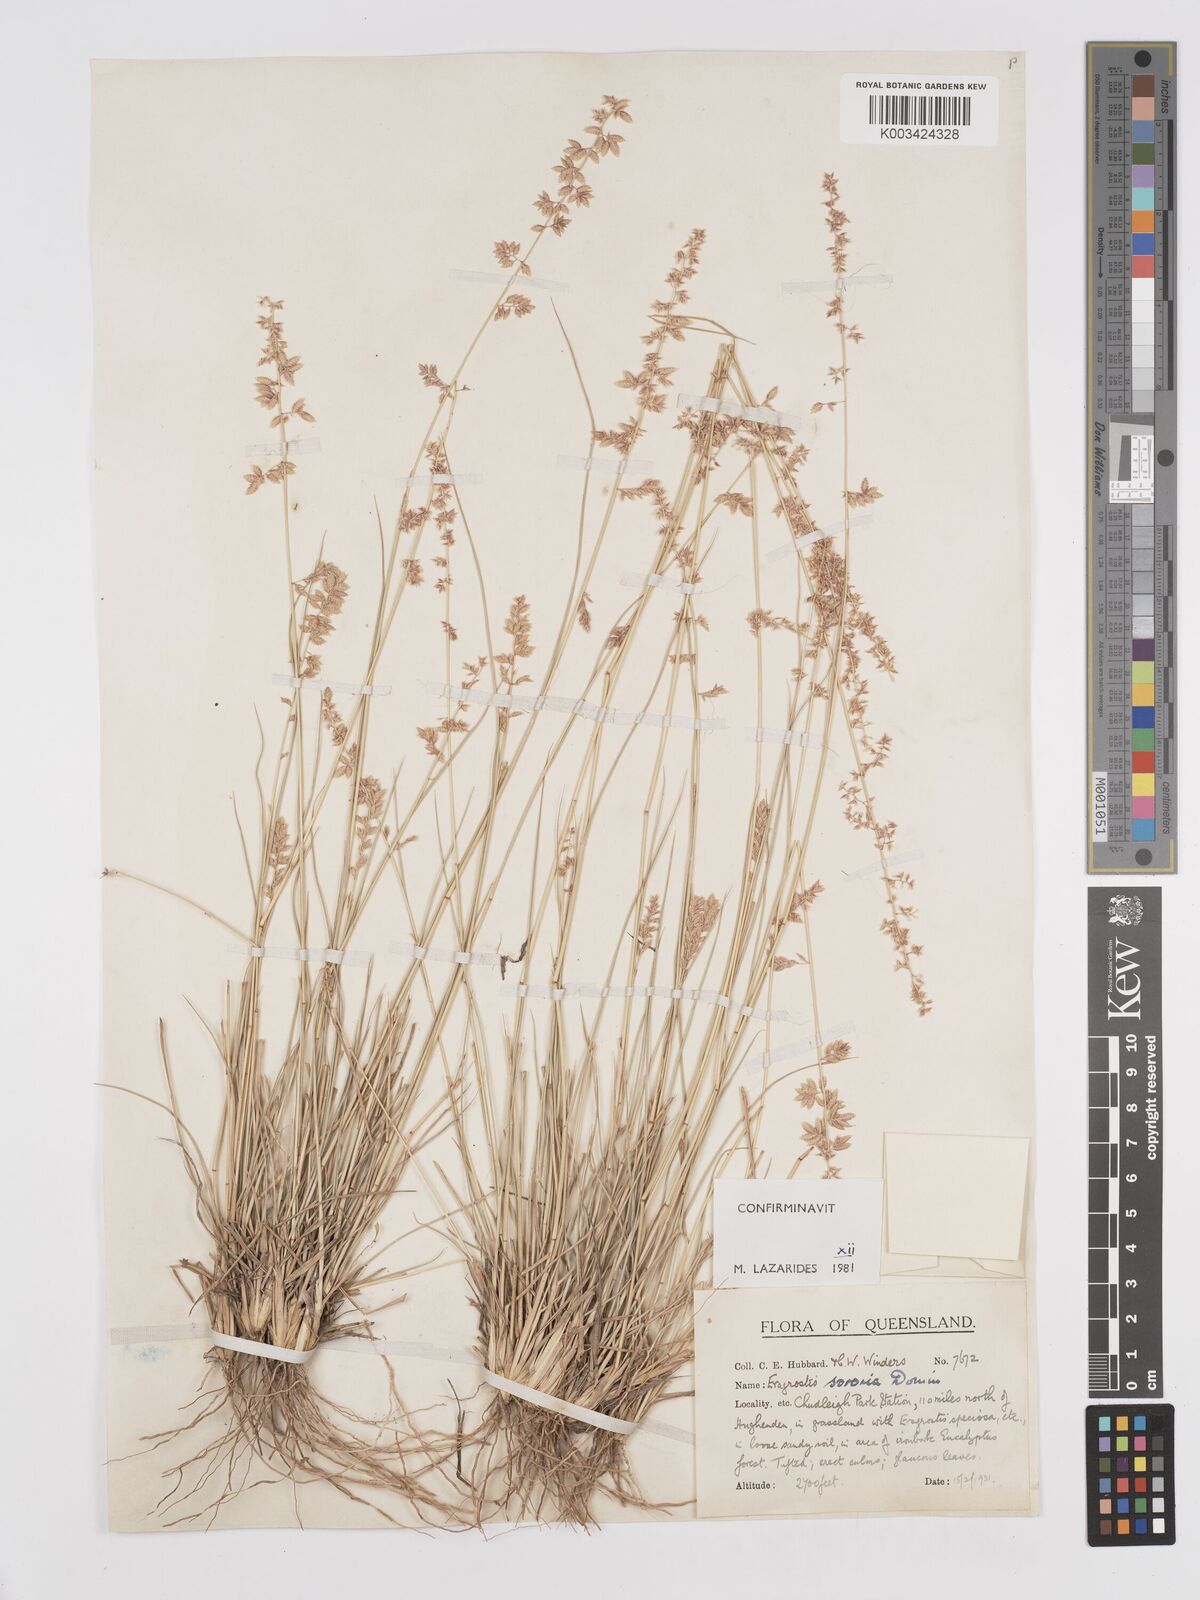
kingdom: Plantae
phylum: Tracheophyta
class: Liliopsida
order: Poales
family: Poaceae
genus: Eragrostis
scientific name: Eragrostis sororia
